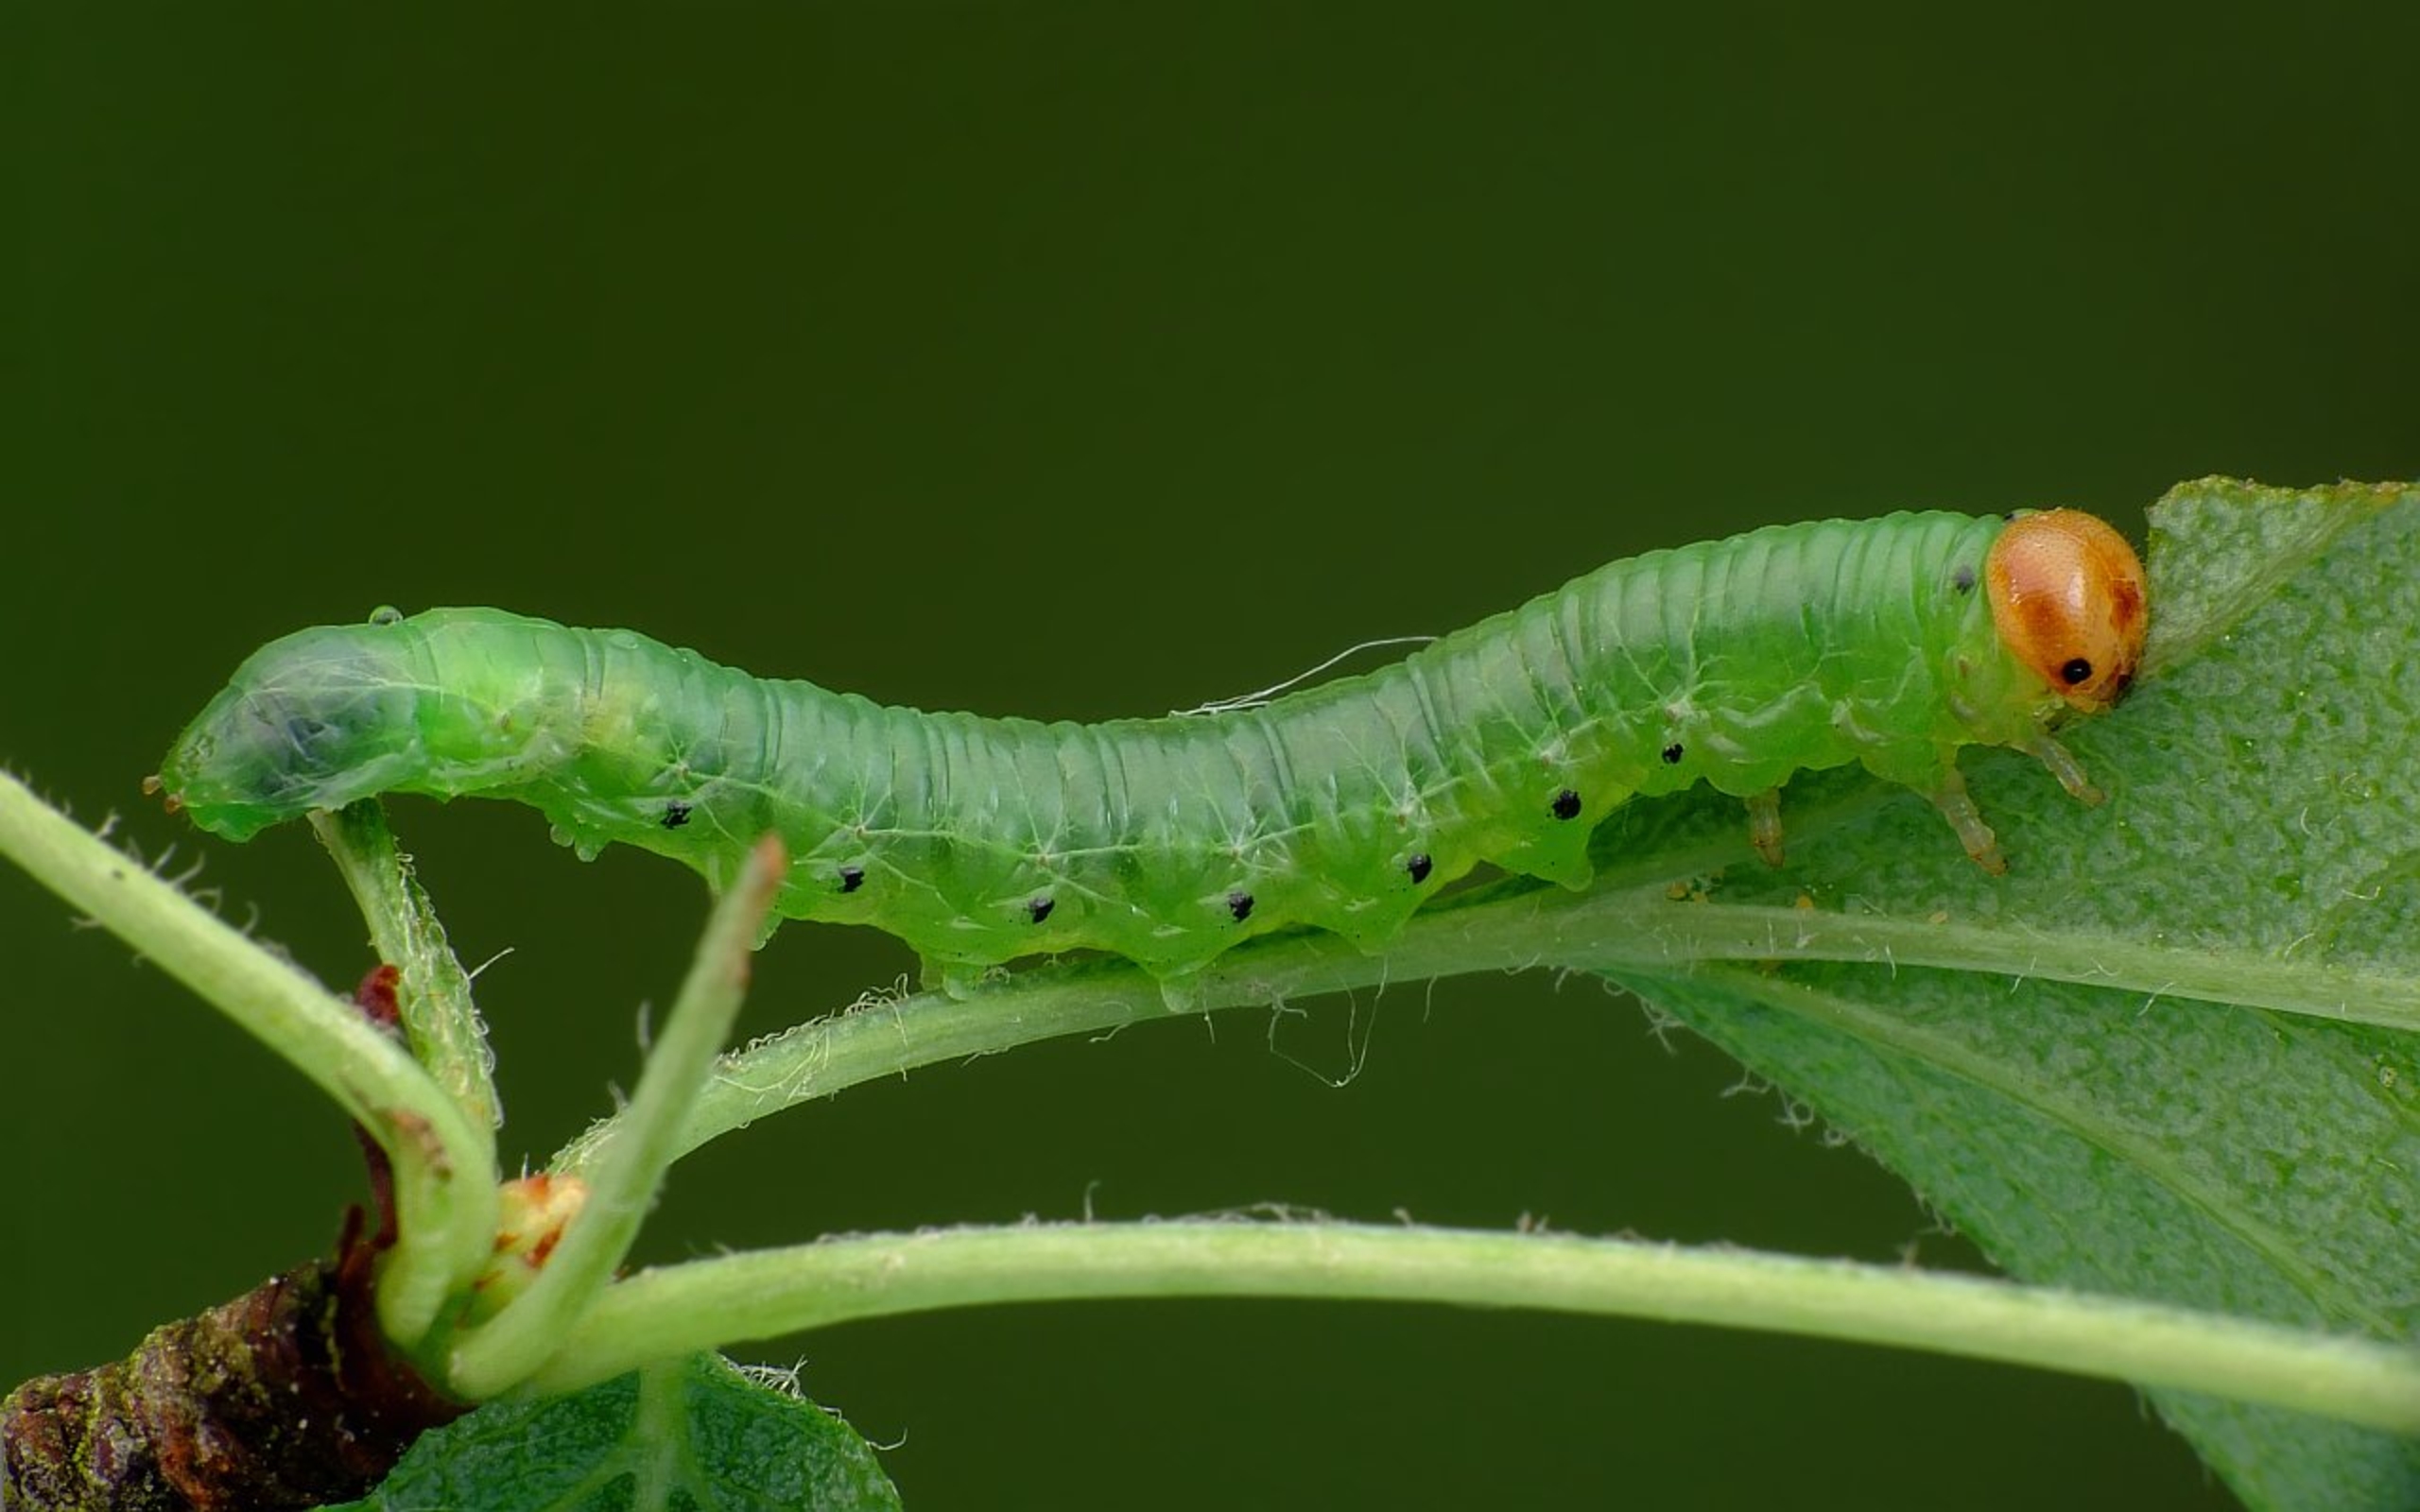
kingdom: Animalia
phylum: Arthropoda
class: Insecta
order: Hymenoptera
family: Tenthredinidae
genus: Nematus
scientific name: Nematus lucidus
